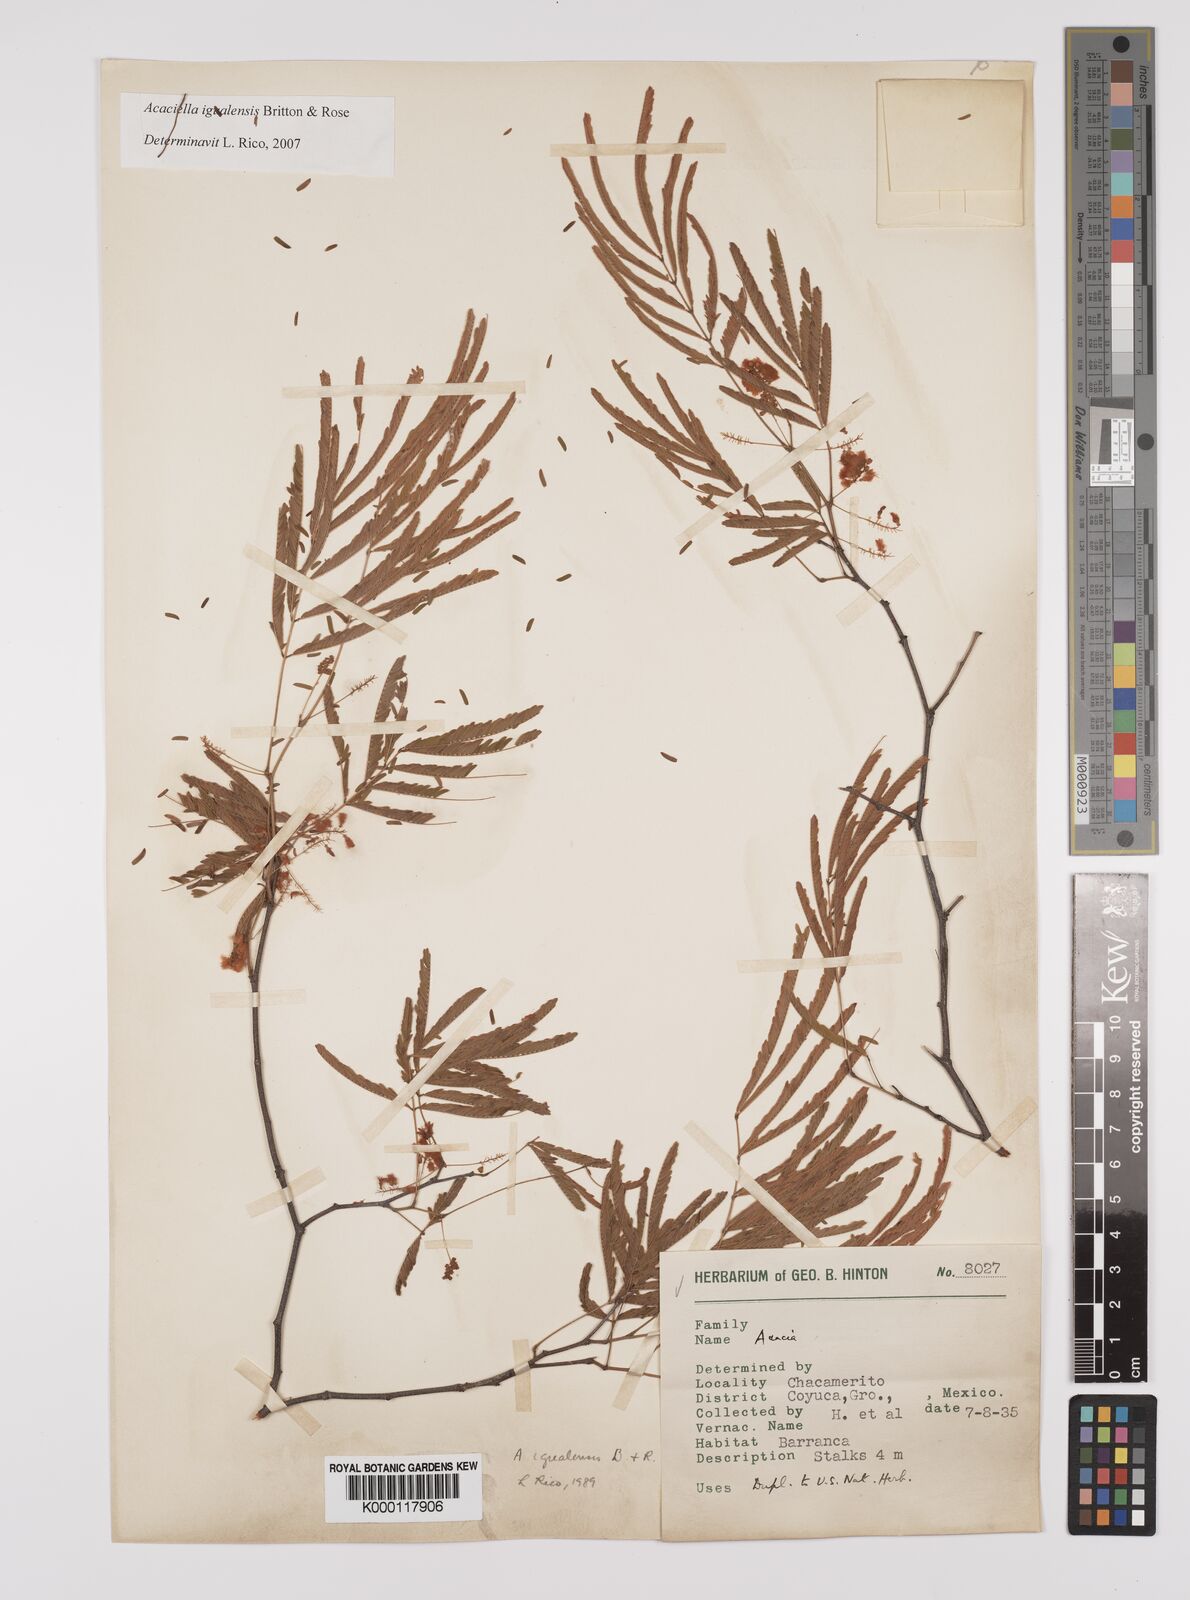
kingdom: Plantae
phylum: Tracheophyta
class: Magnoliopsida
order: Fabales
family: Fabaceae
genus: Acaciella
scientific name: Acaciella igualensis
